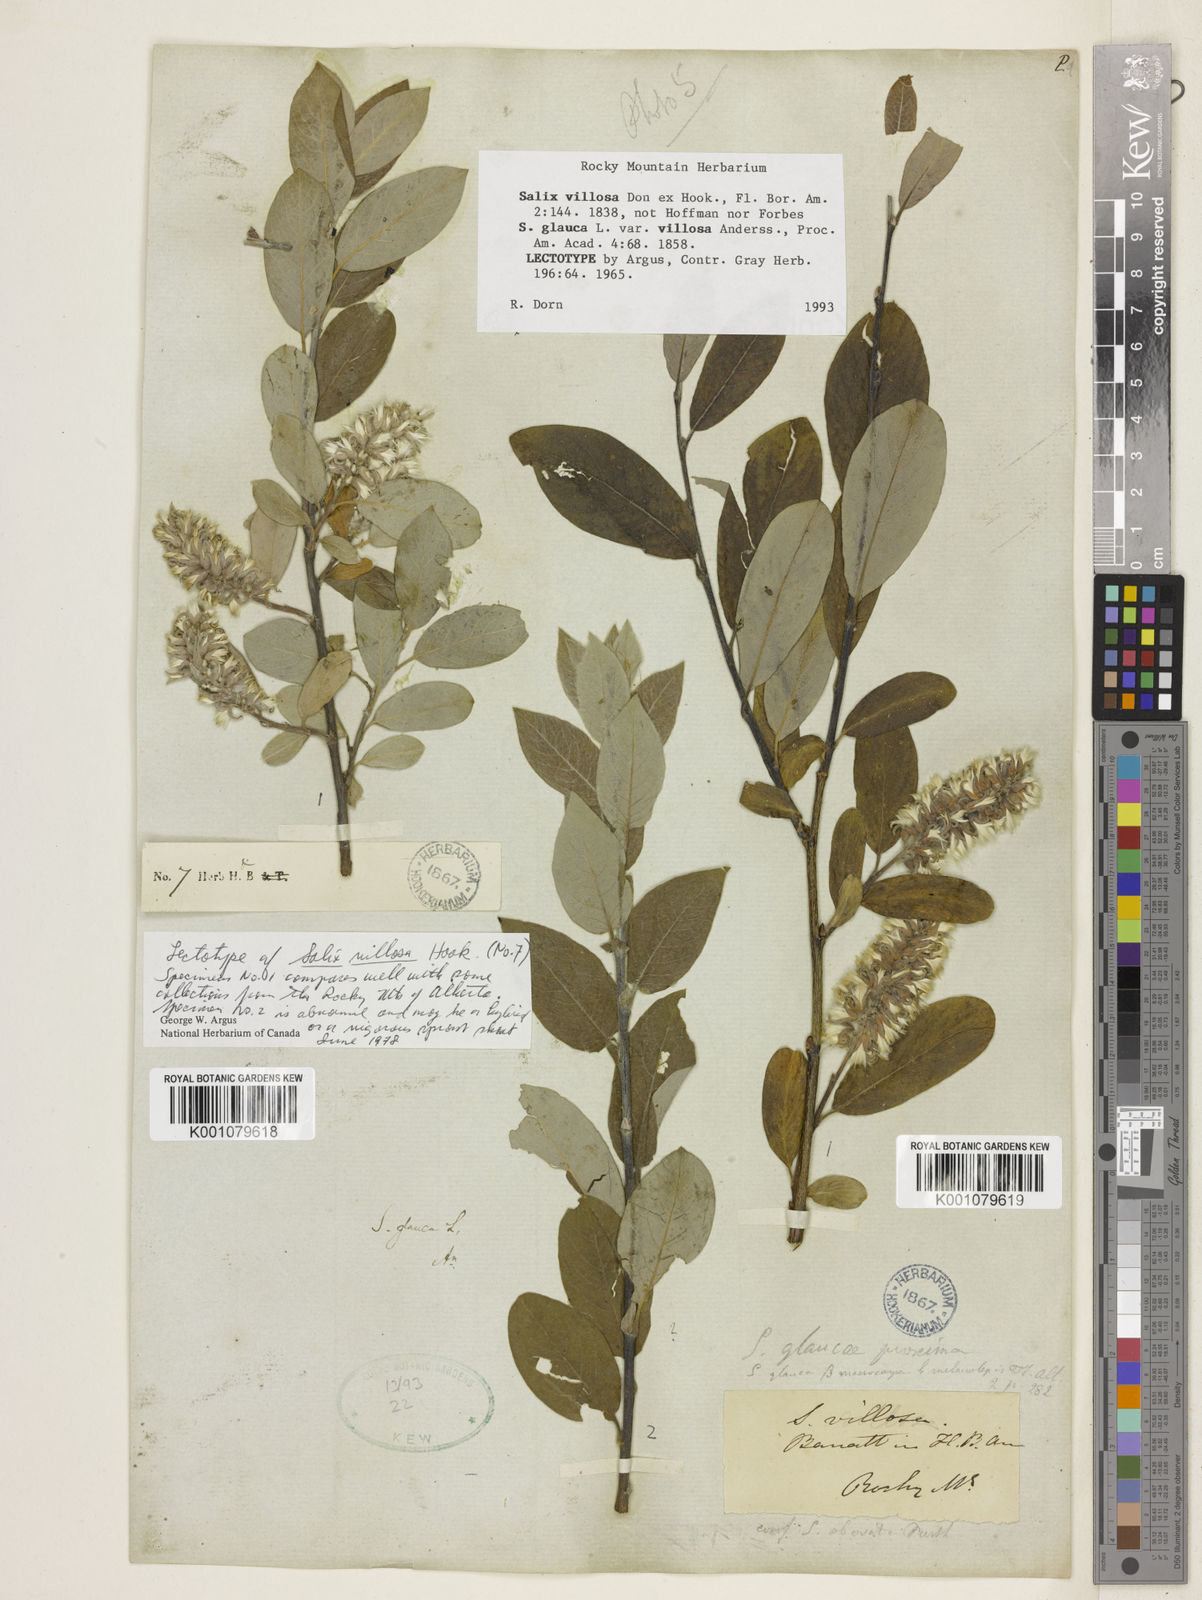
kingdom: Plantae
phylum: Tracheophyta
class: Magnoliopsida
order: Malpighiales
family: Salicaceae
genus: Salix
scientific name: Salix glauca
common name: Glaucous willow
